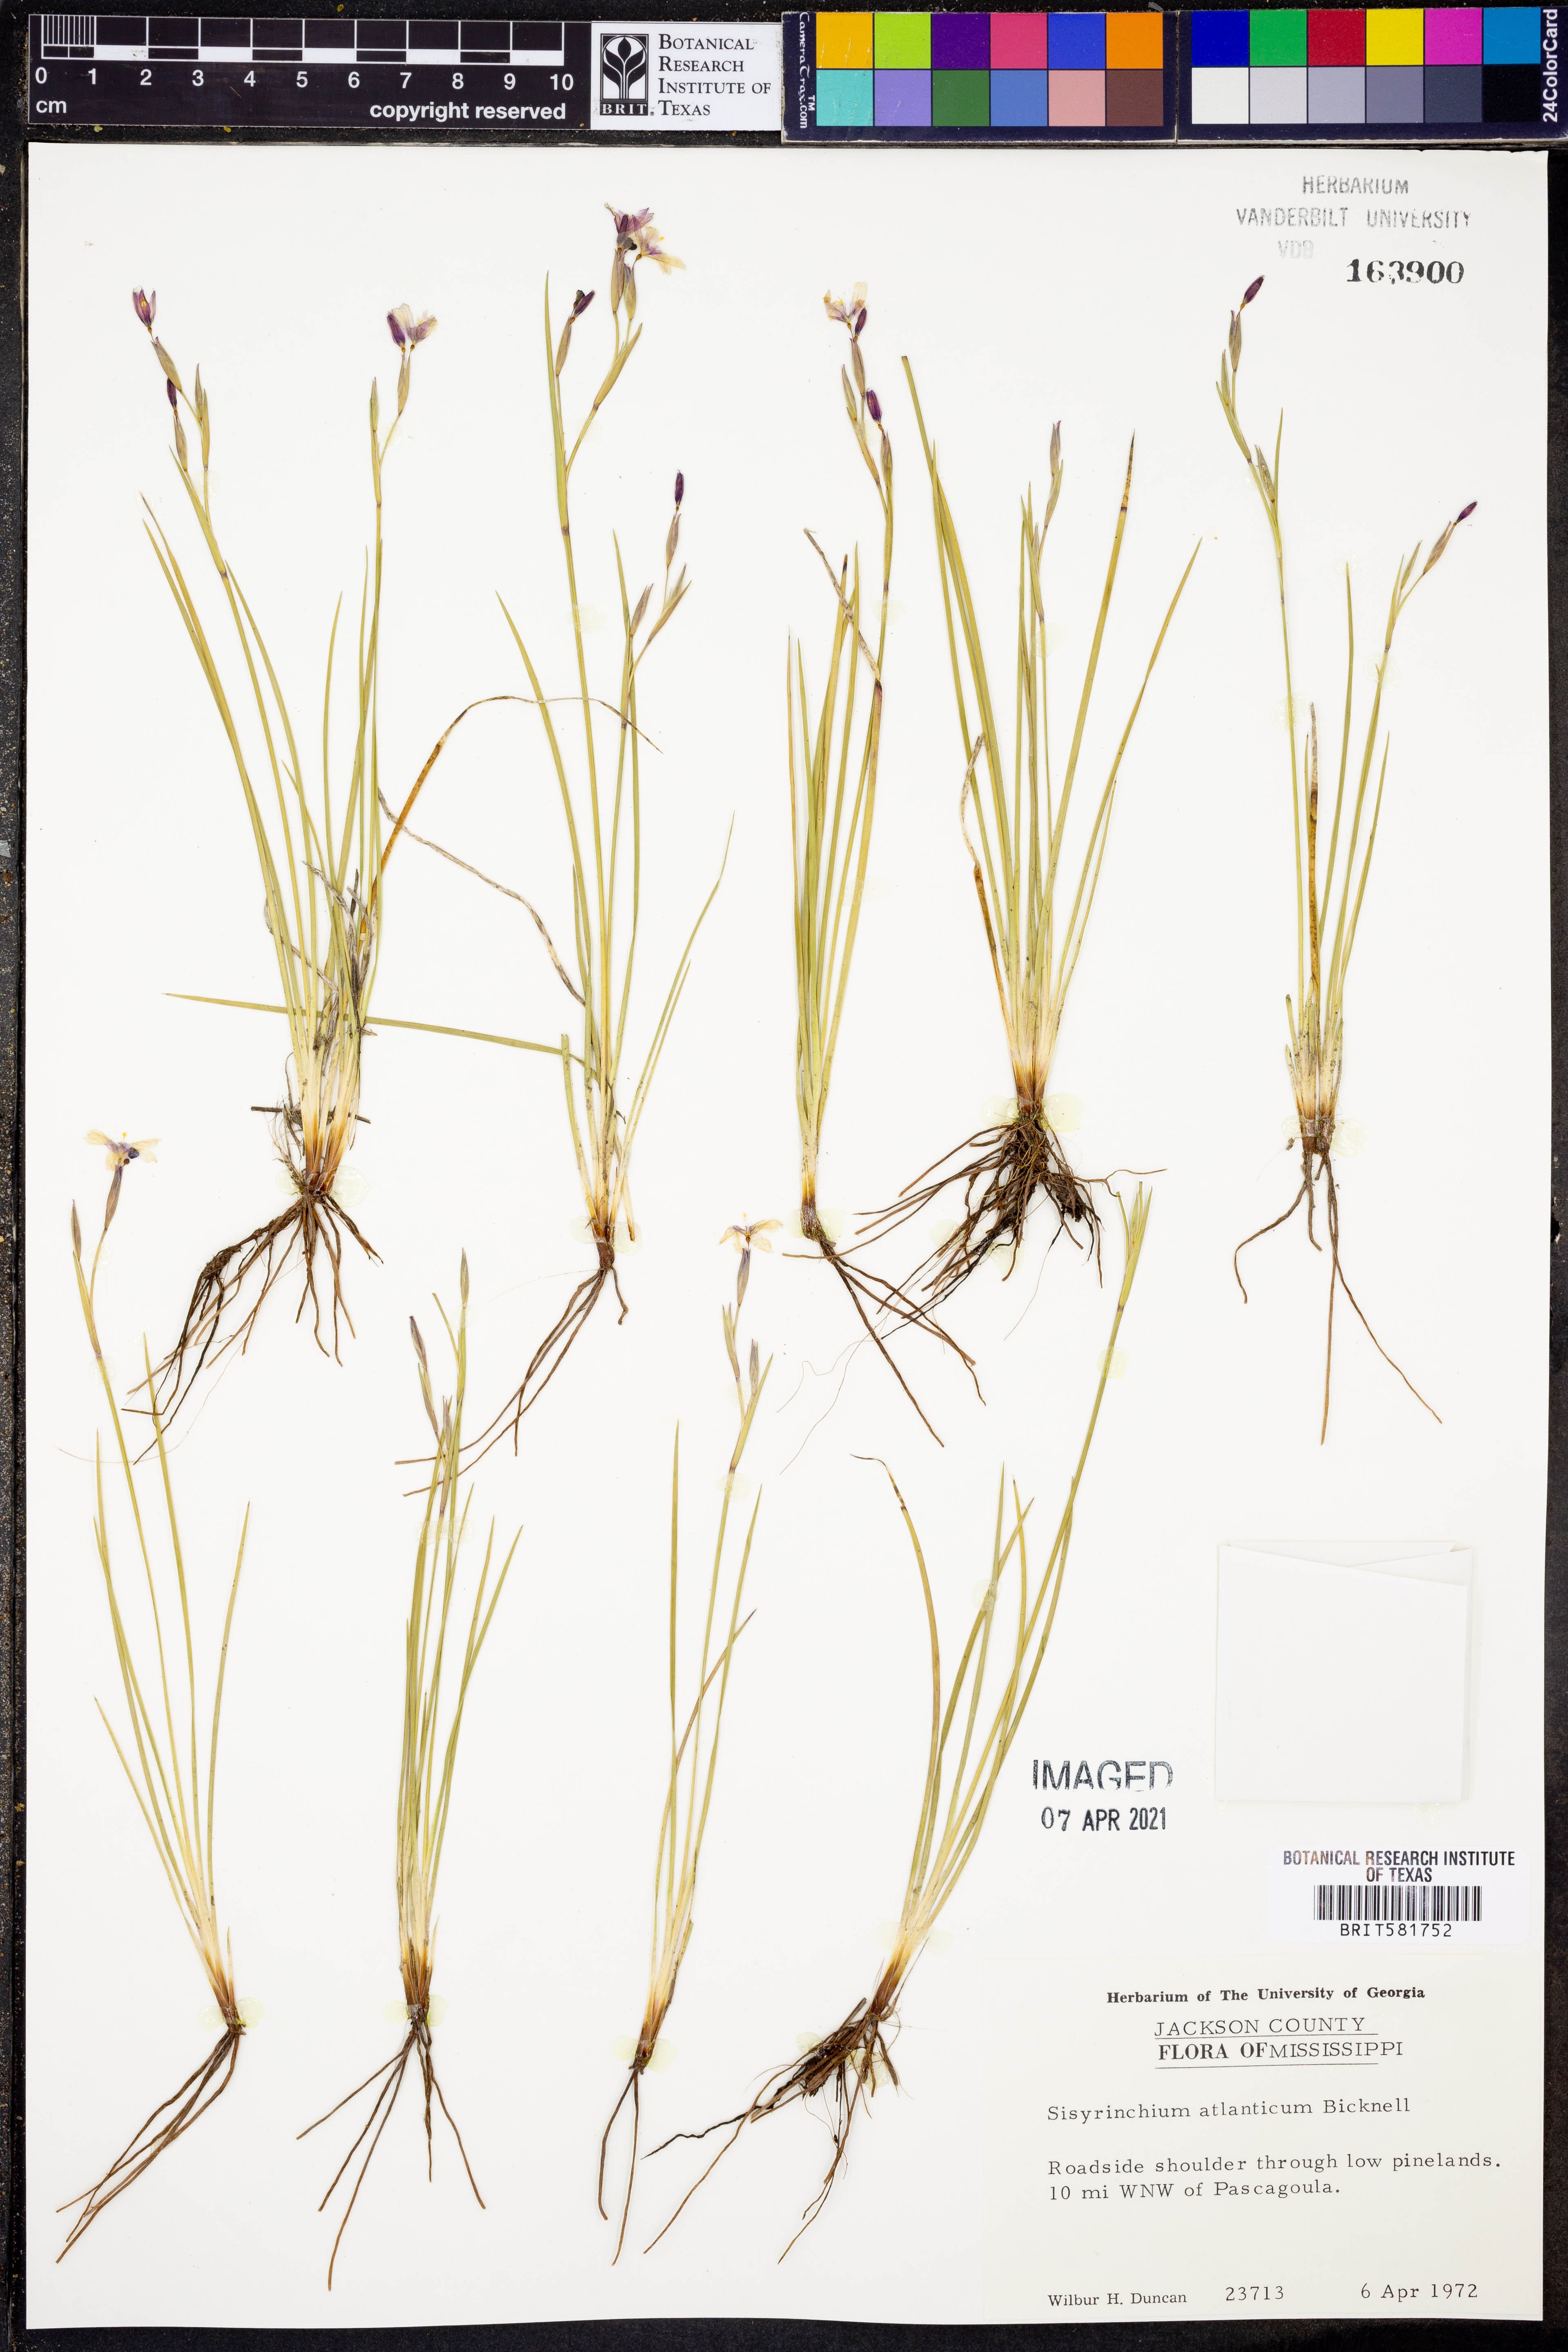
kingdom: Plantae
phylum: Tracheophyta
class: Liliopsida
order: Asparagales
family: Iridaceae
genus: Sisyrinchium
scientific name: Sisyrinchium atlanticum
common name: Eastern blue-eyed-grass
